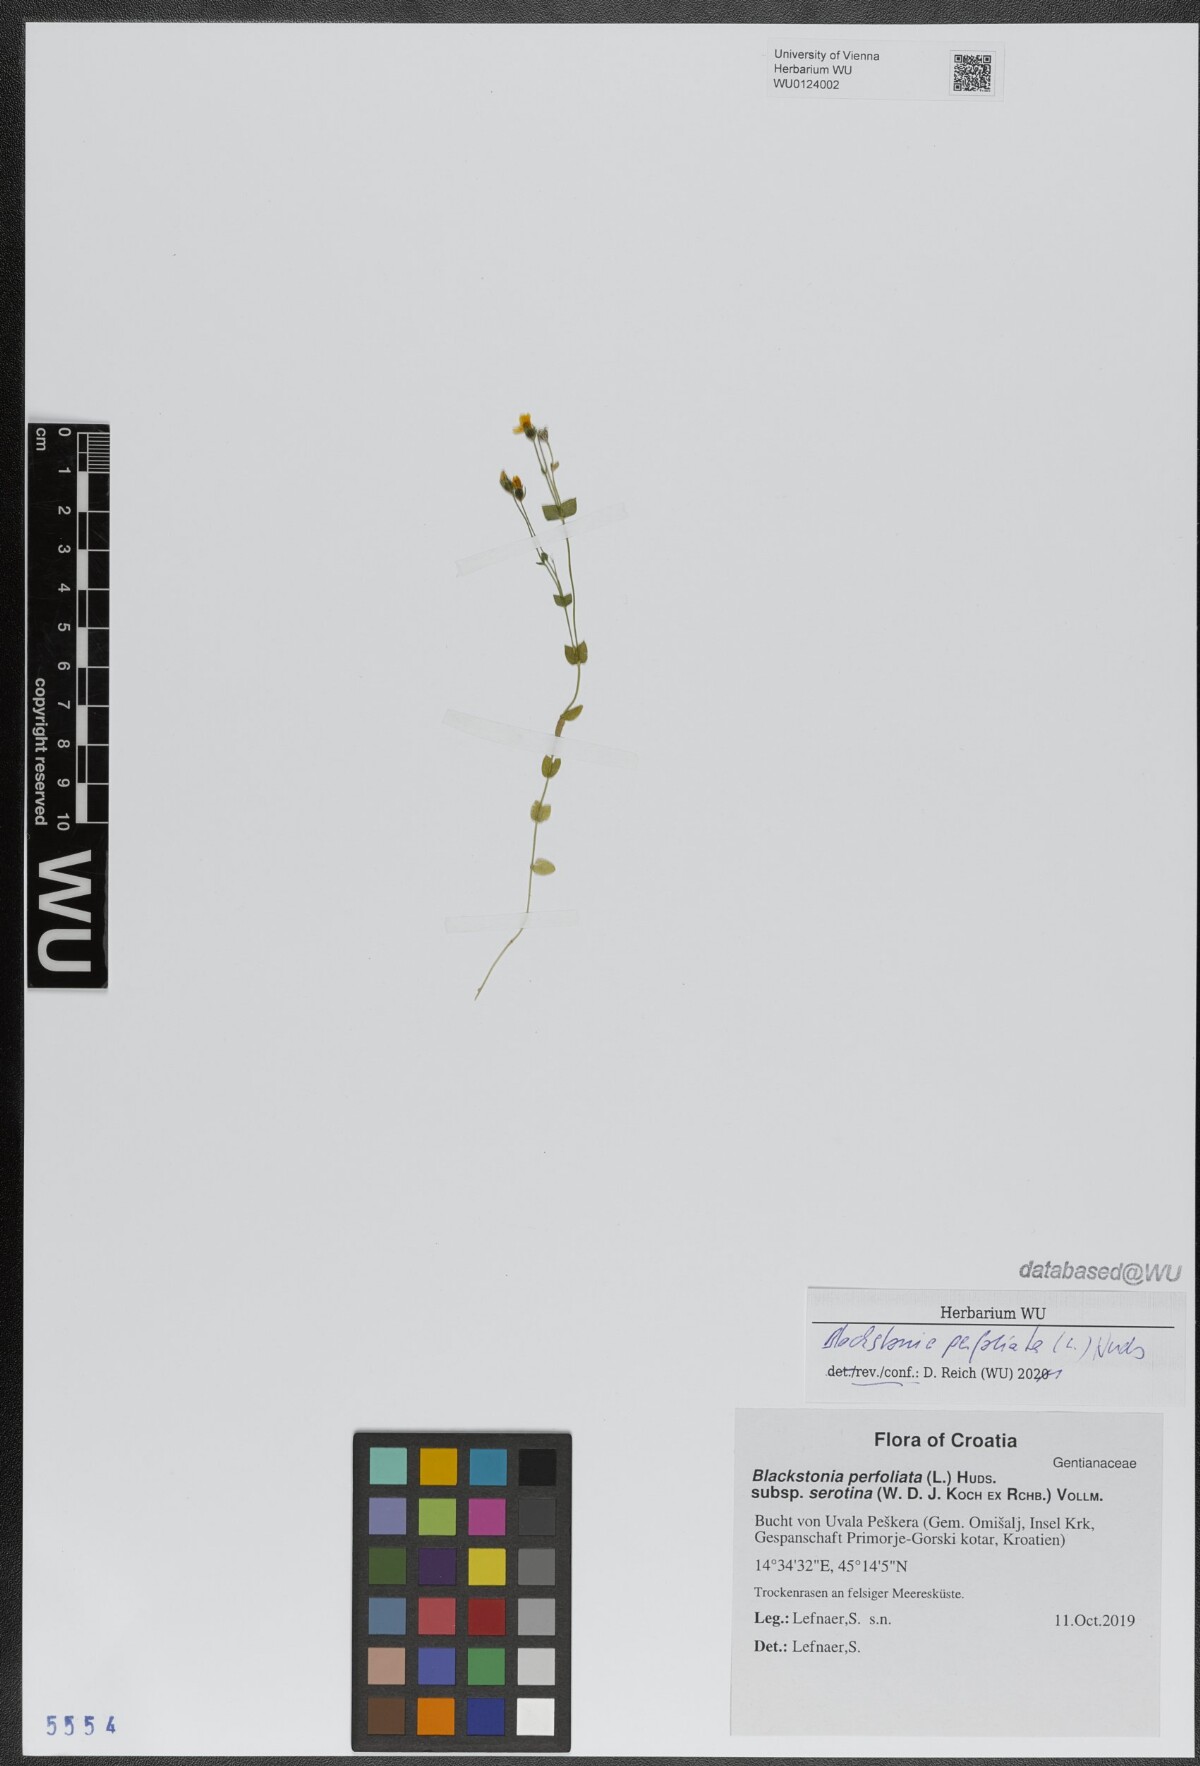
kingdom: Plantae
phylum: Tracheophyta
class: Magnoliopsida
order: Gentianales
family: Gentianaceae
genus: Blackstonia
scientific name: Blackstonia perfoliata
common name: Yellow-wort
